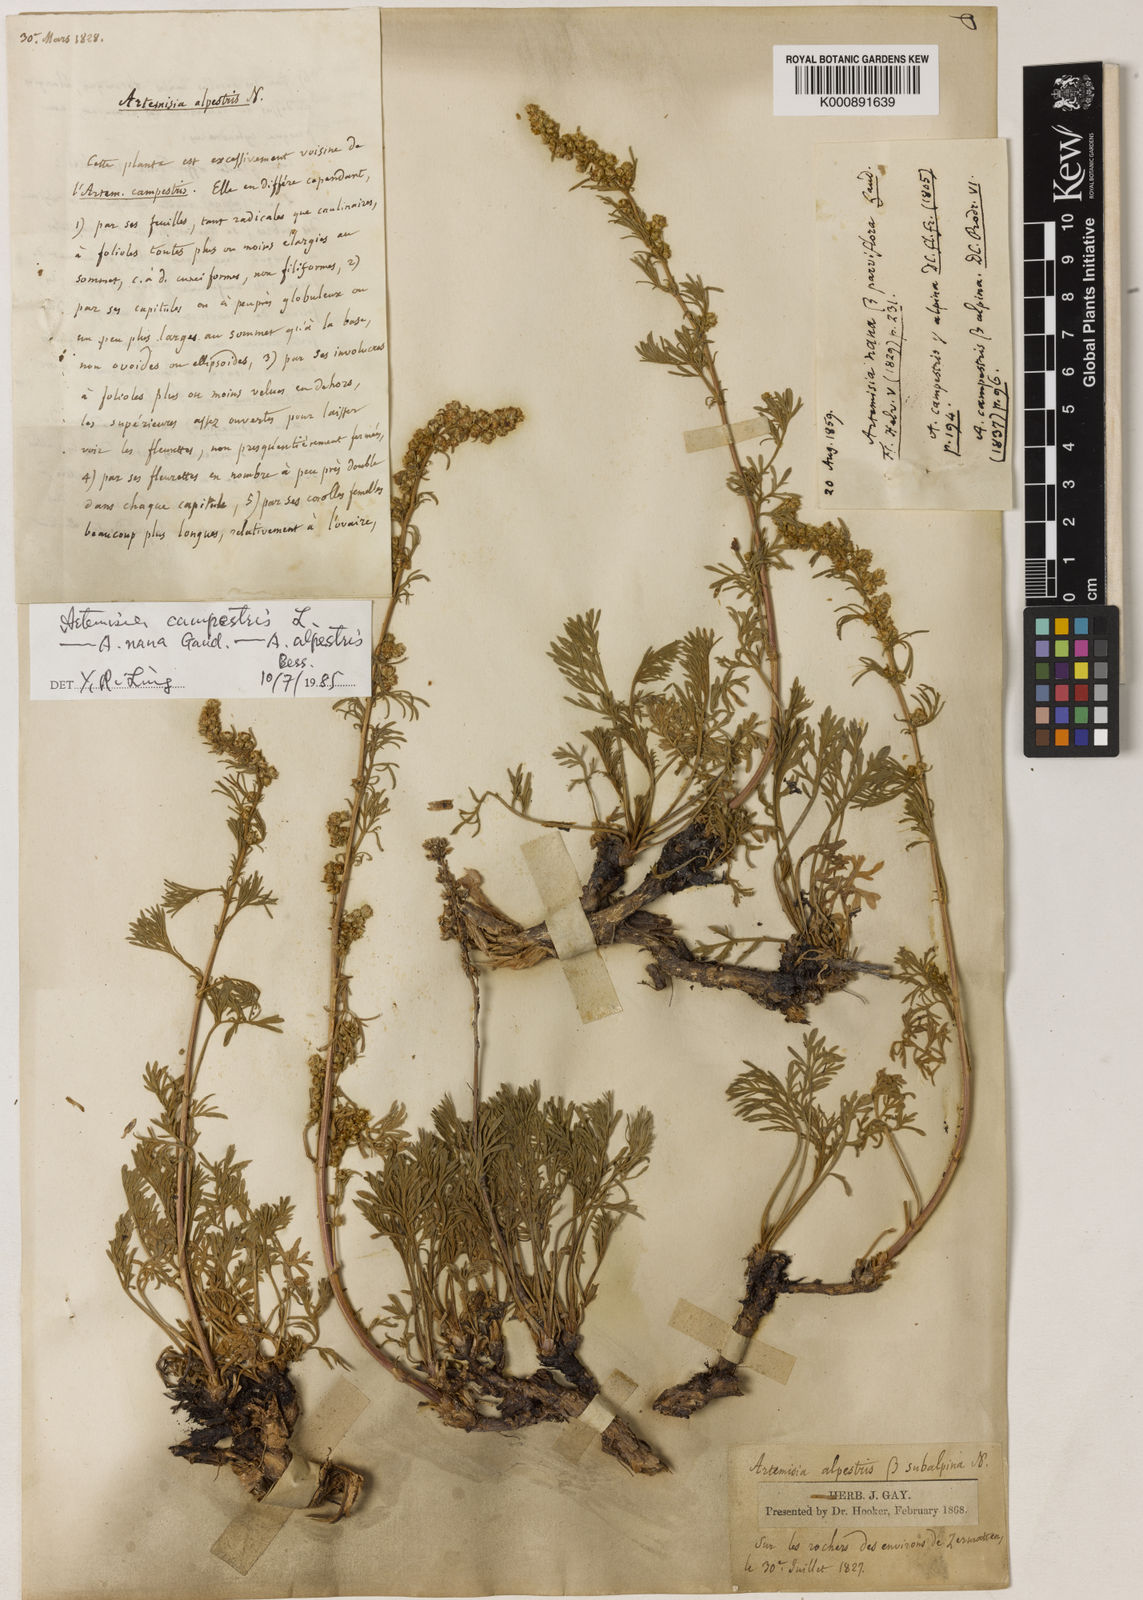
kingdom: Plantae
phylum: Tracheophyta
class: Magnoliopsida
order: Asterales
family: Asteraceae
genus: Artemisia
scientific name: Artemisia caerulescens
